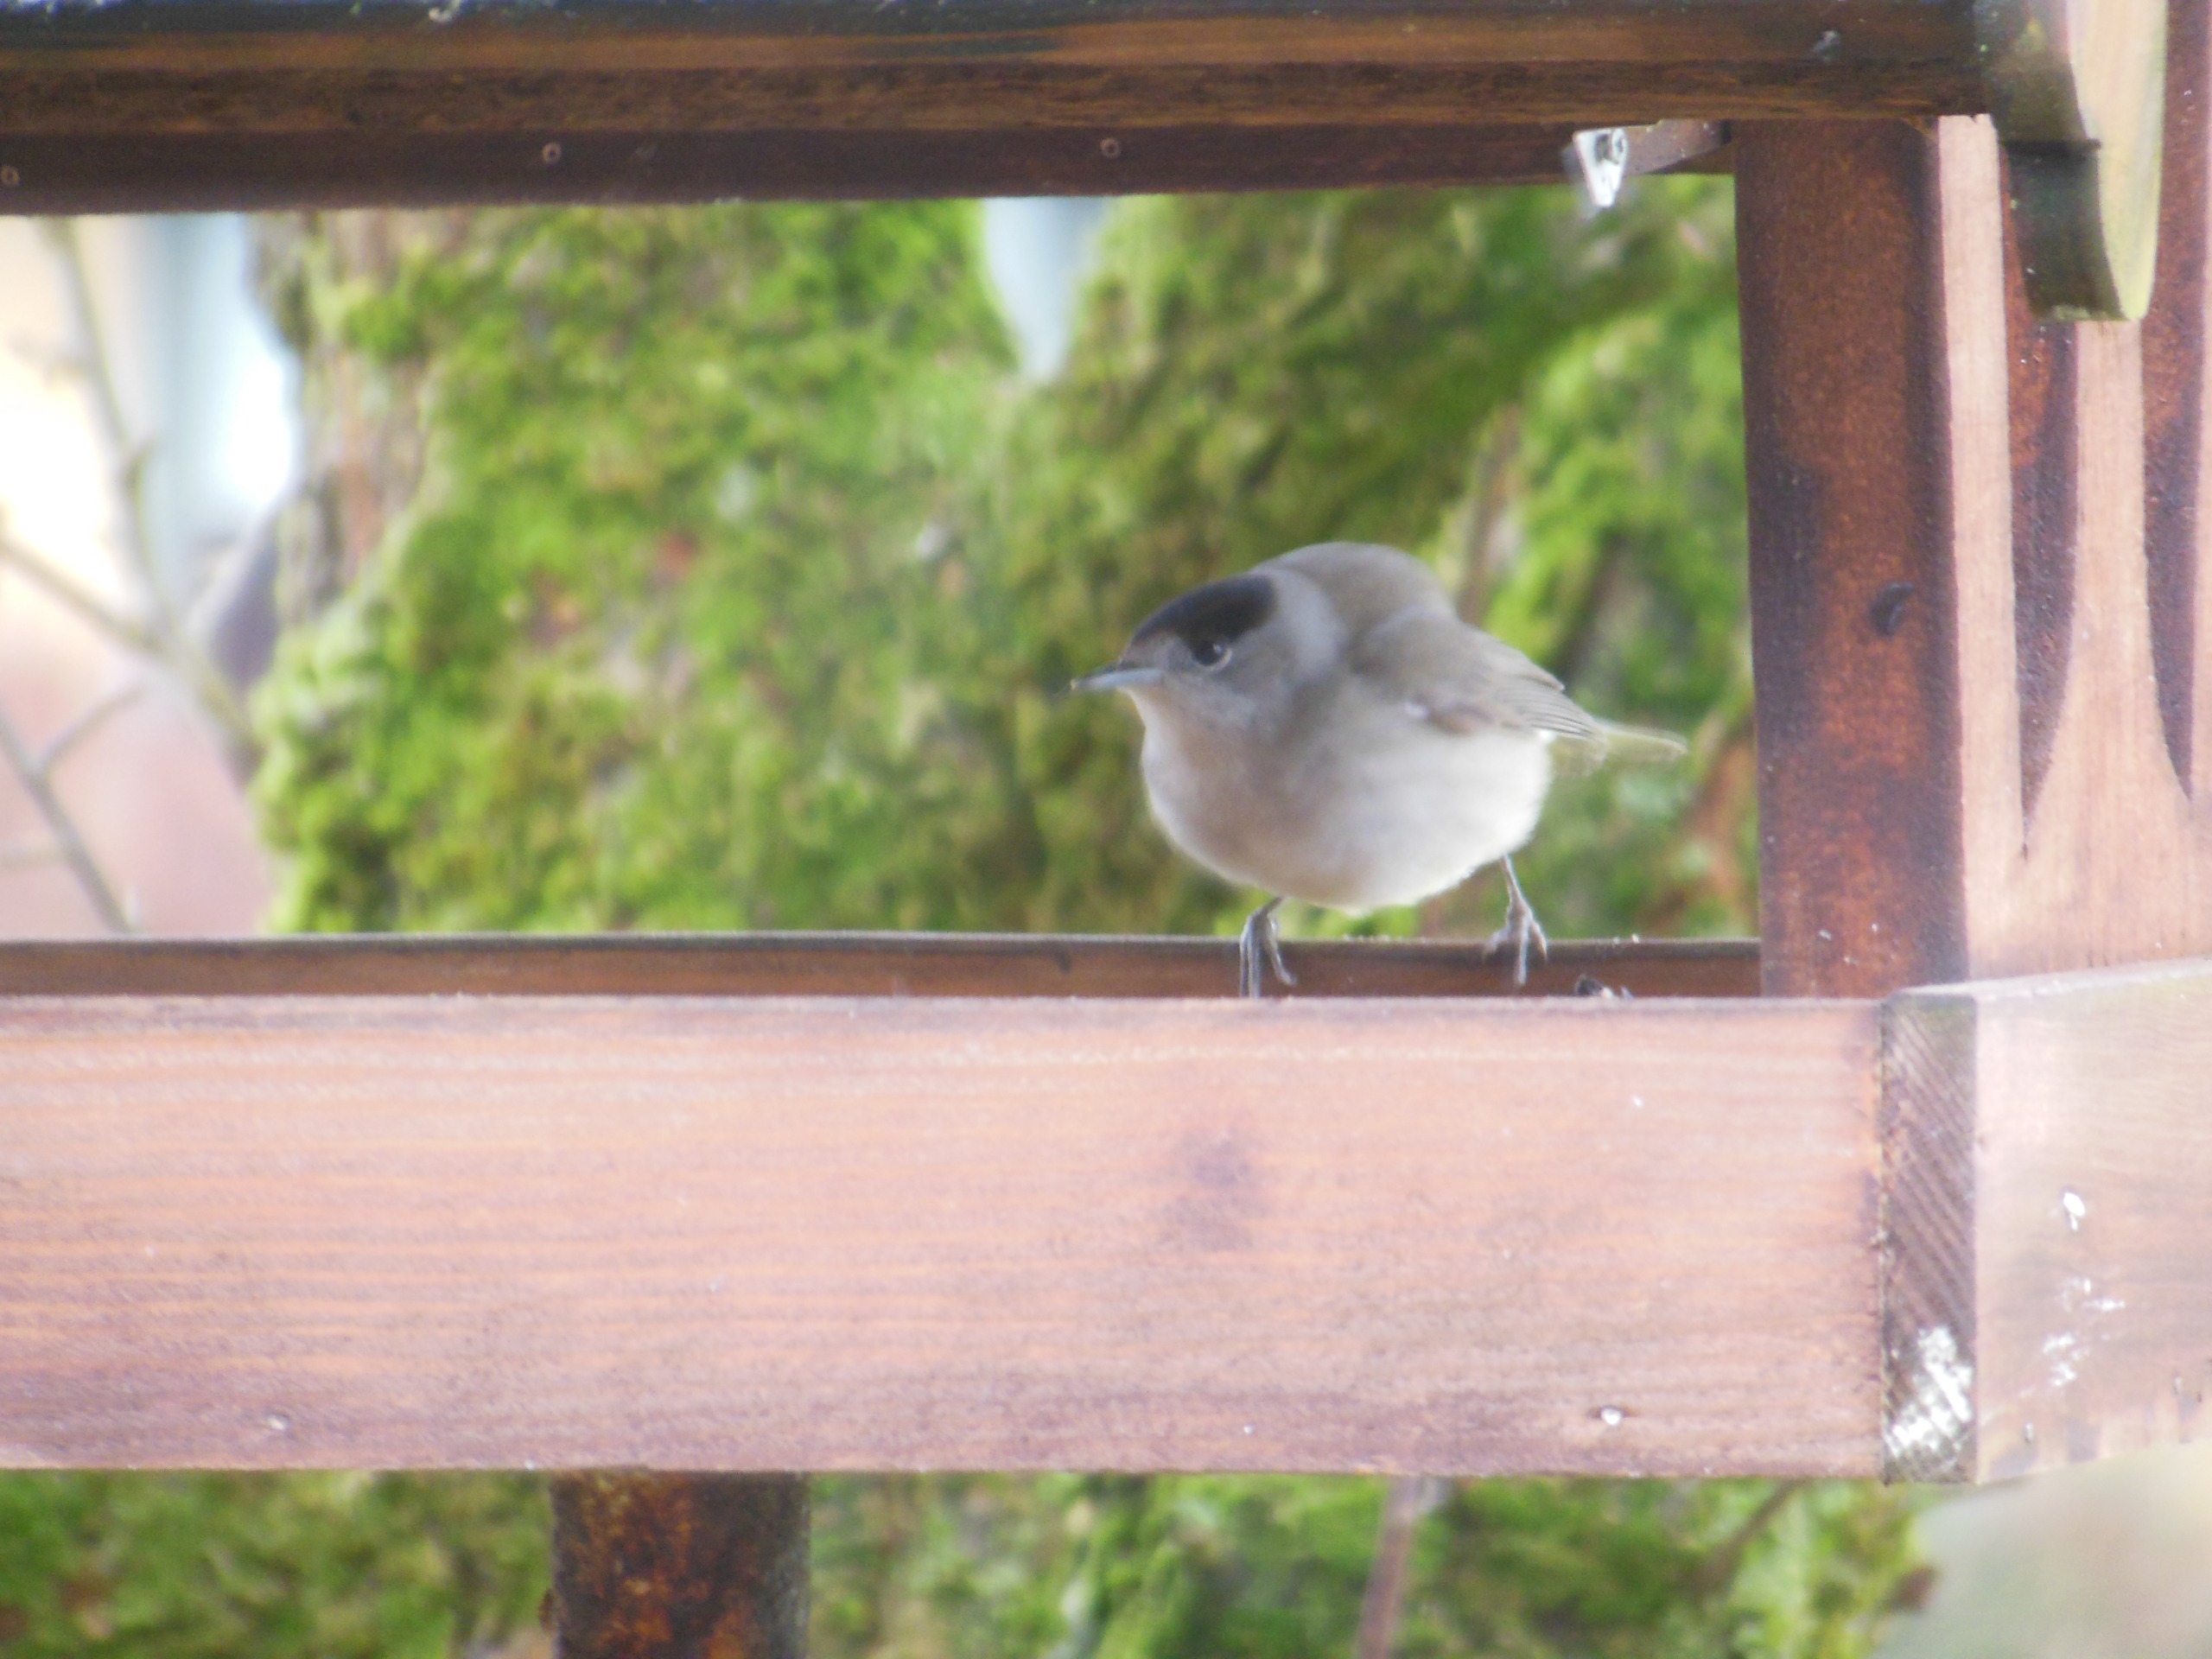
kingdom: Animalia
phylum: Chordata
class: Aves
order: Passeriformes
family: Sylviidae
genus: Sylvia
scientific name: Sylvia atricapilla
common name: Munk
